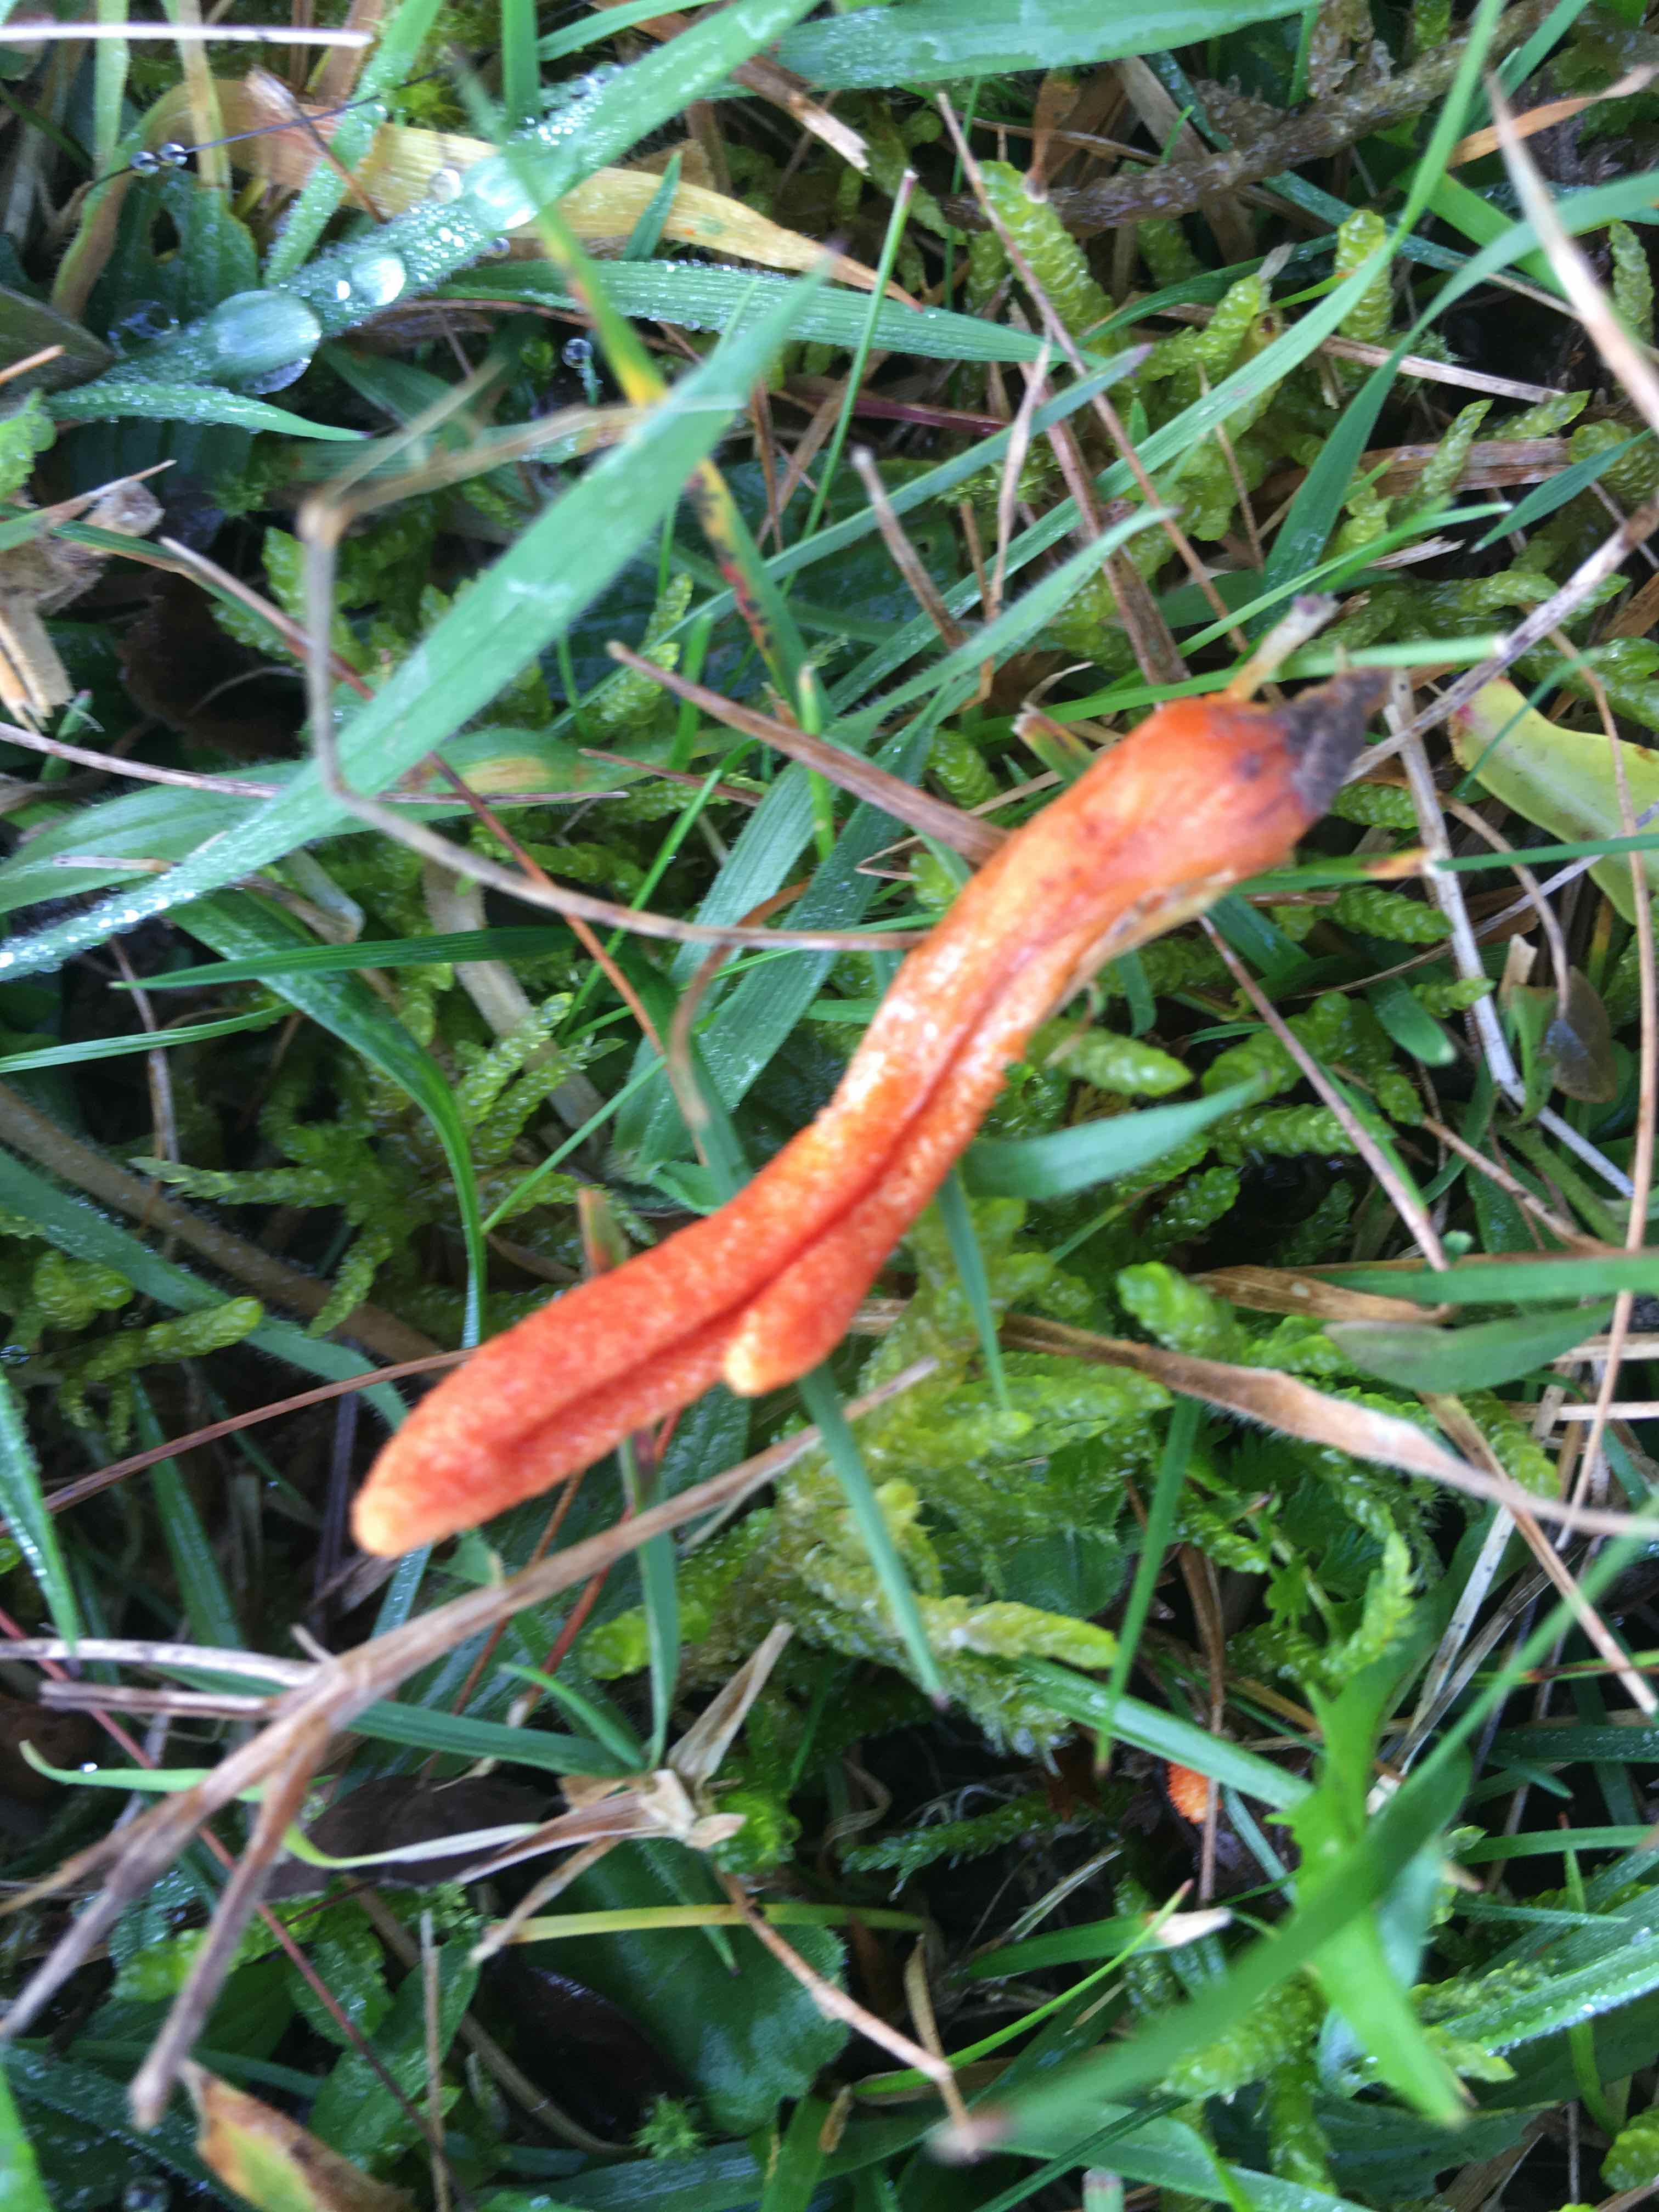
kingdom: Fungi
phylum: Ascomycota
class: Sordariomycetes
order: Hypocreales
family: Cordycipitaceae
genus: Cordyceps
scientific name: Cordyceps militaris
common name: puppe-snyltekølle
